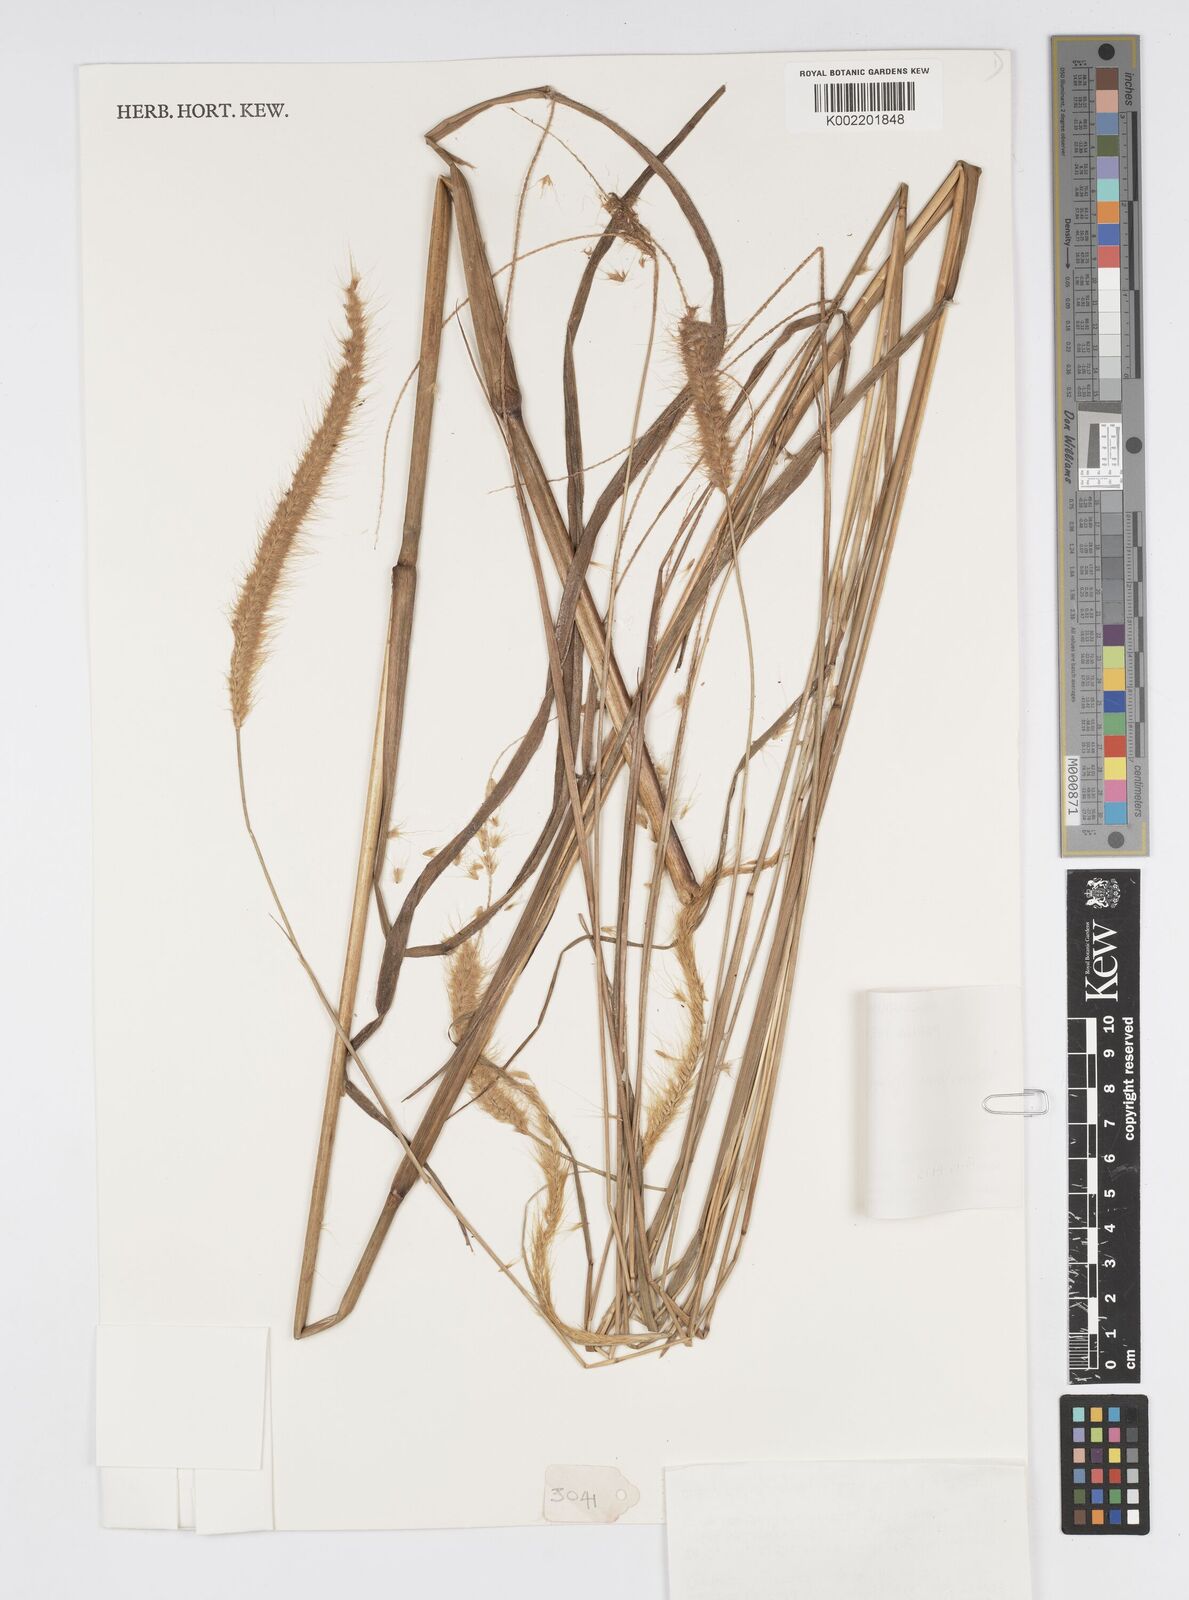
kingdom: Plantae
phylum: Tracheophyta
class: Liliopsida
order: Poales
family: Poaceae
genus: Setaria
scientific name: Setaria parviflora
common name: Knotroot bristle-grass
